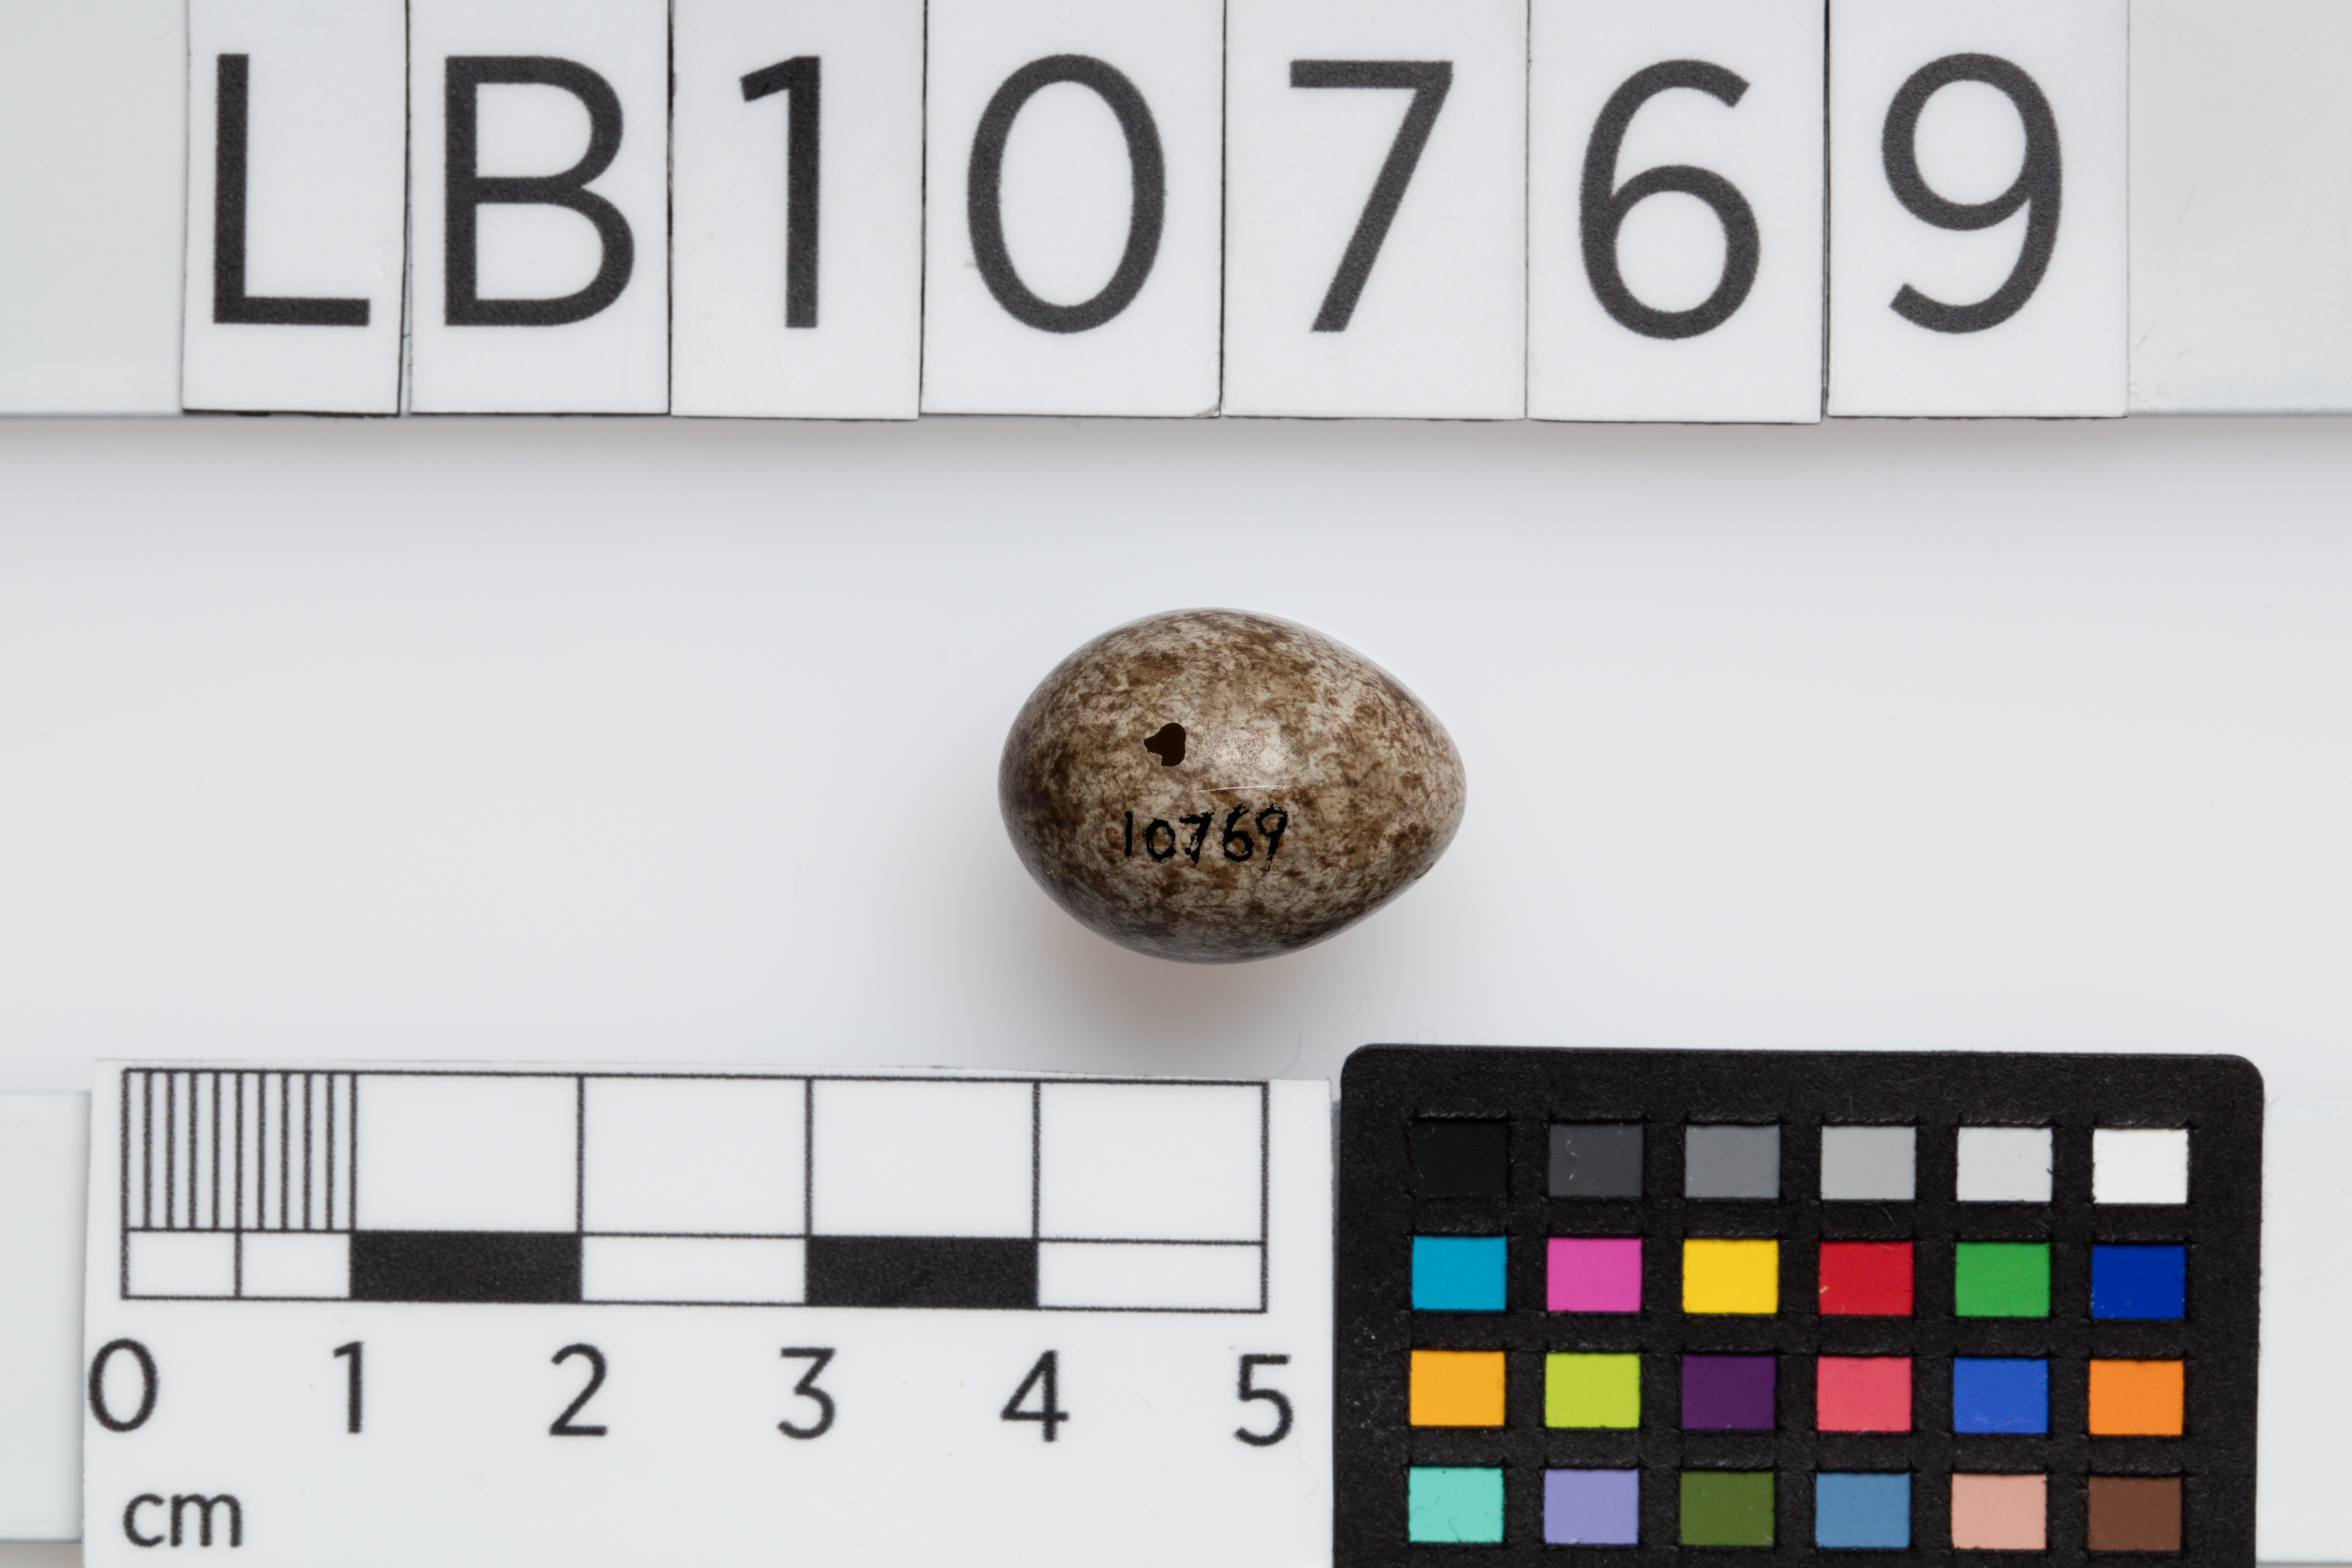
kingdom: Animalia
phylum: Chordata
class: Aves
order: Passeriformes
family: Motacillidae
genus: Anthus
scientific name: Anthus pratensis
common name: Meadow pipit
